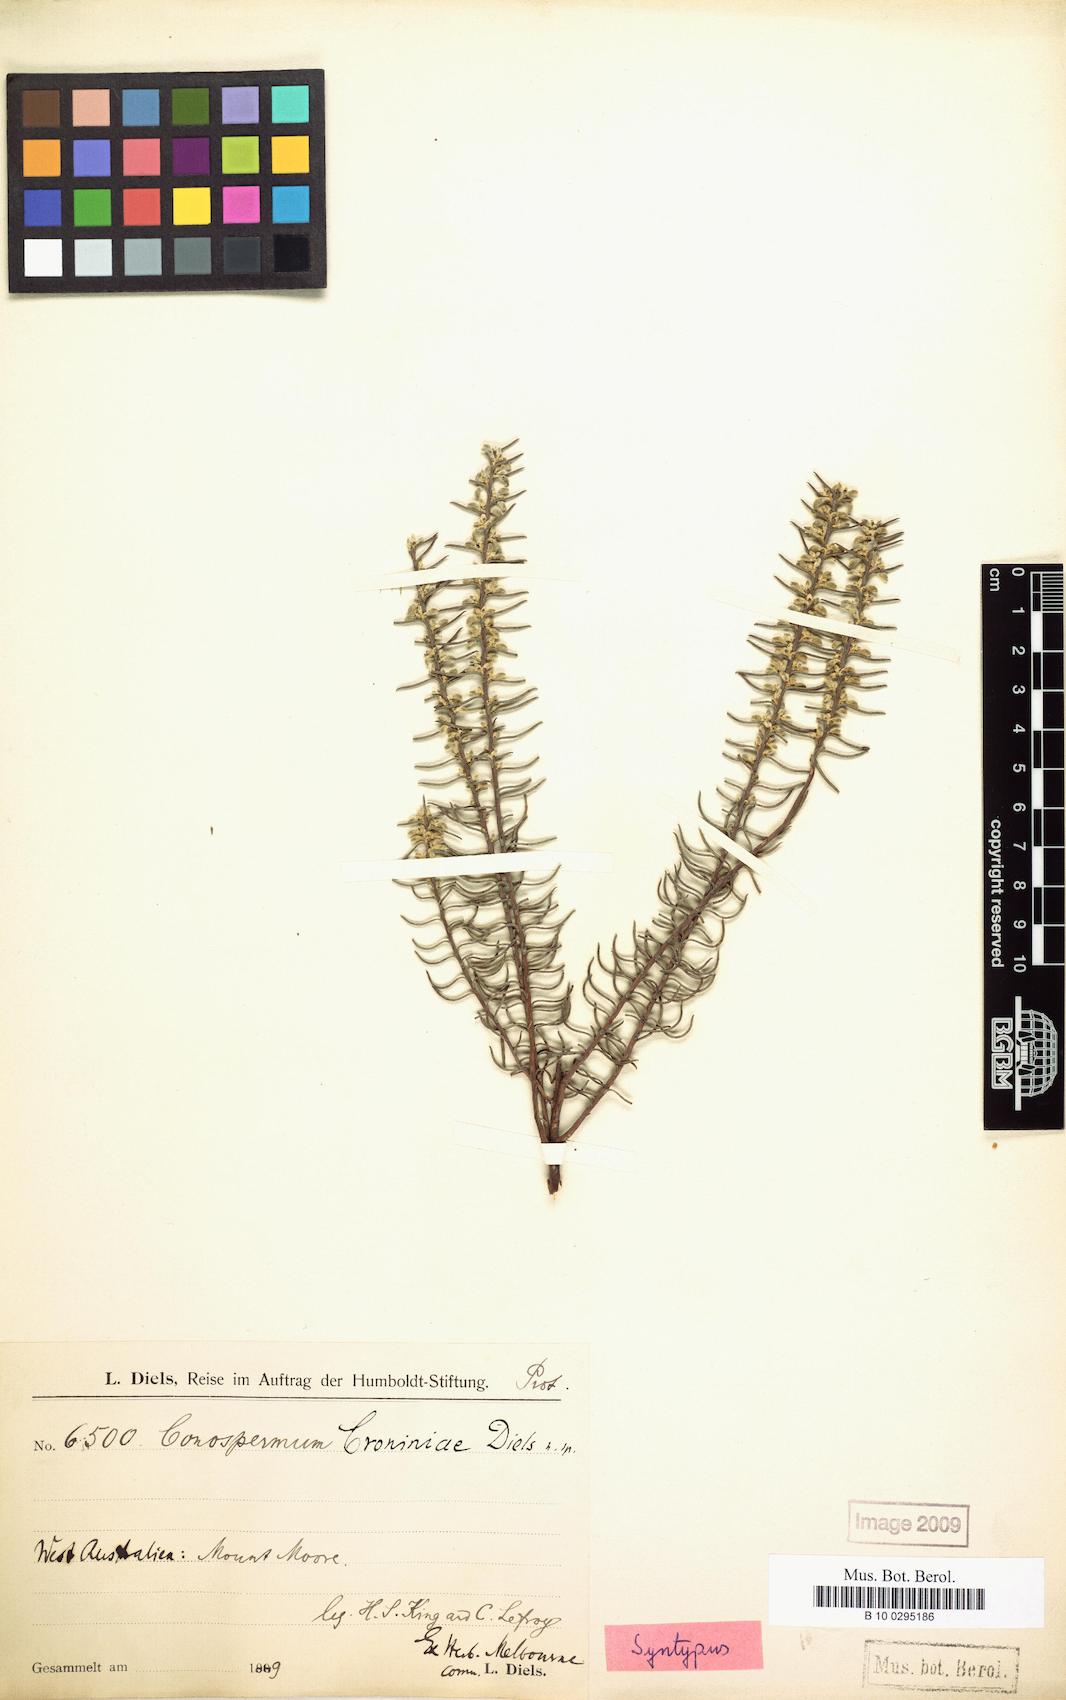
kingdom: Plantae
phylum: Tracheophyta
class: Magnoliopsida
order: Proteales
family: Proteaceae
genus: Conospermum
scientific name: Conospermum croniniae
